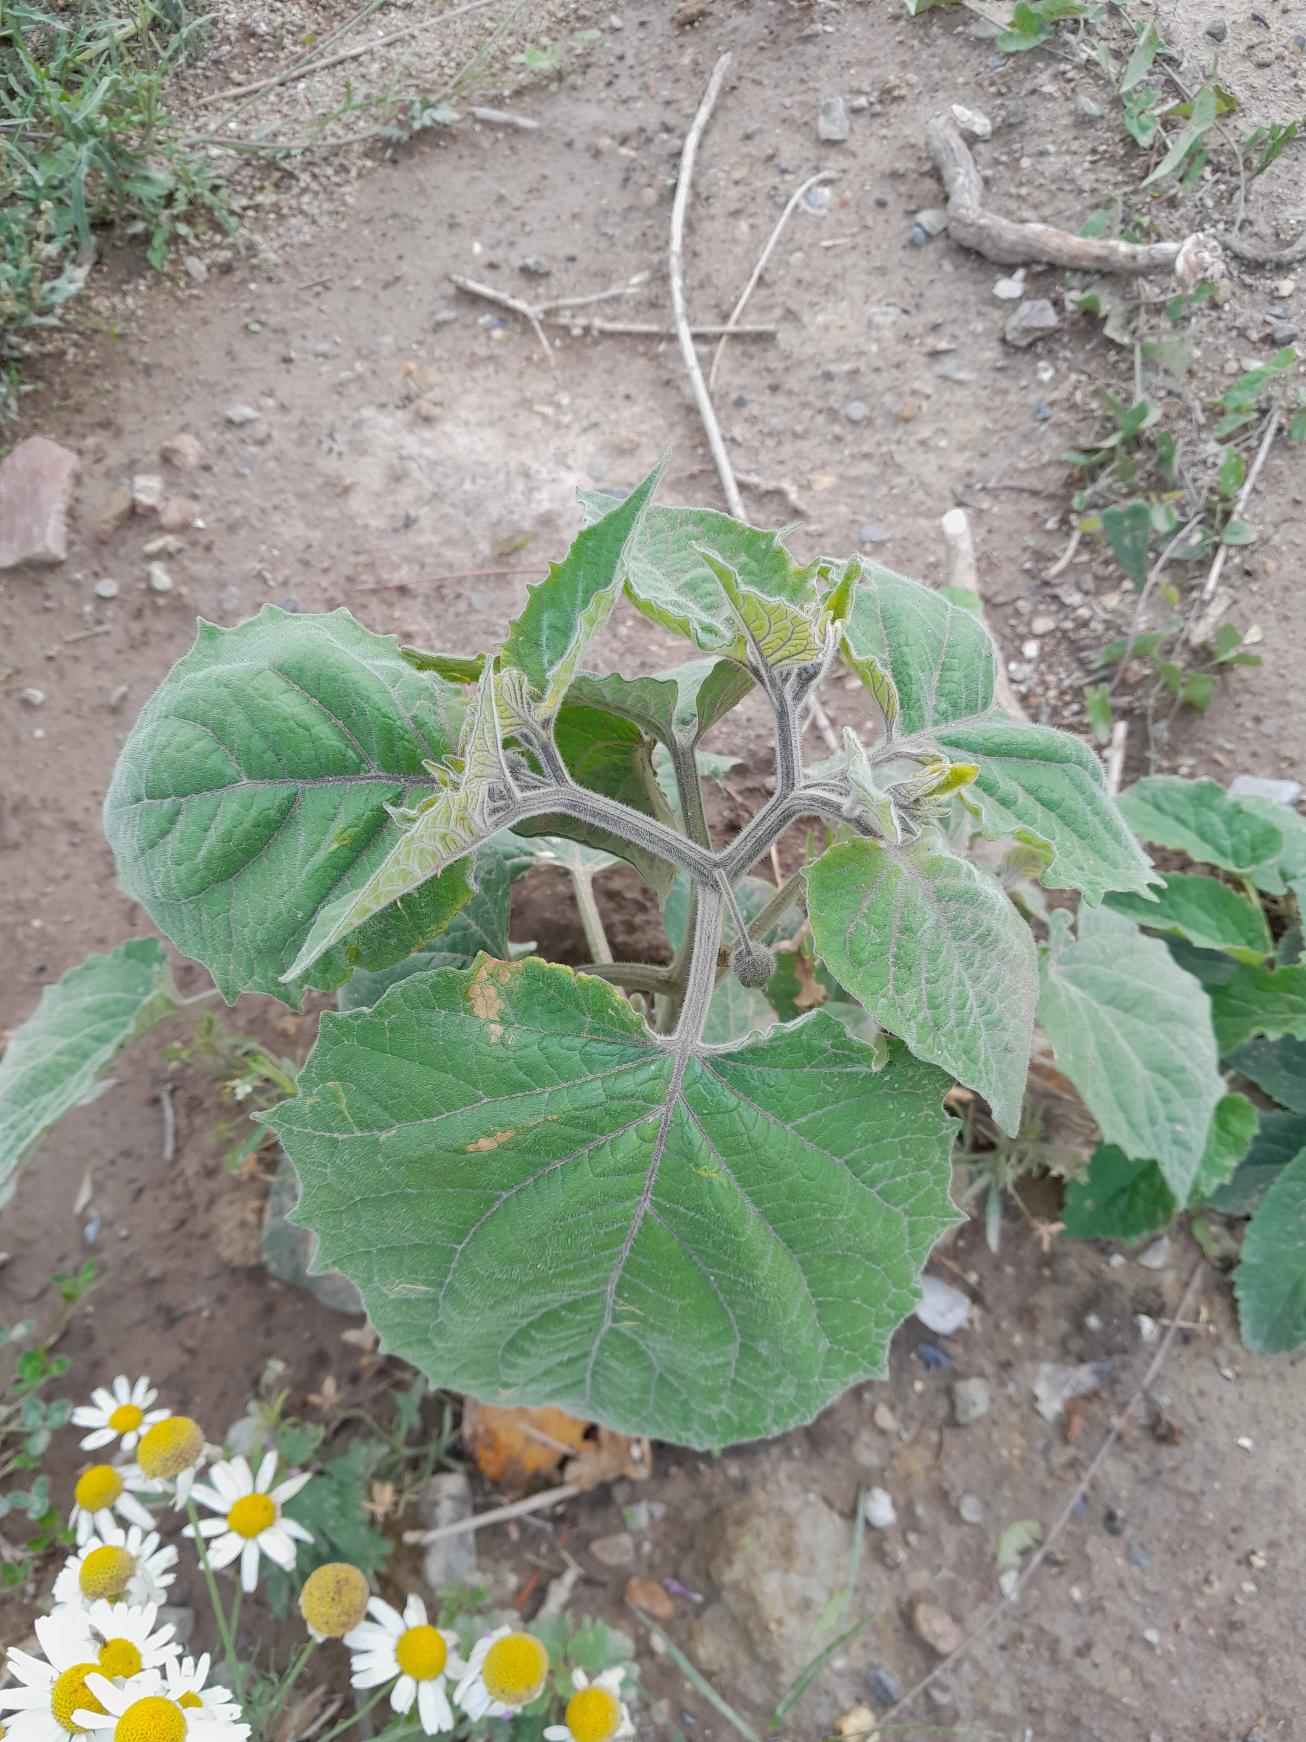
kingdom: Plantae
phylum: Tracheophyta
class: Magnoliopsida
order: Solanales
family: Solanaceae
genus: Physalis
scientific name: Physalis peruviana
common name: Ananaskirsebær
